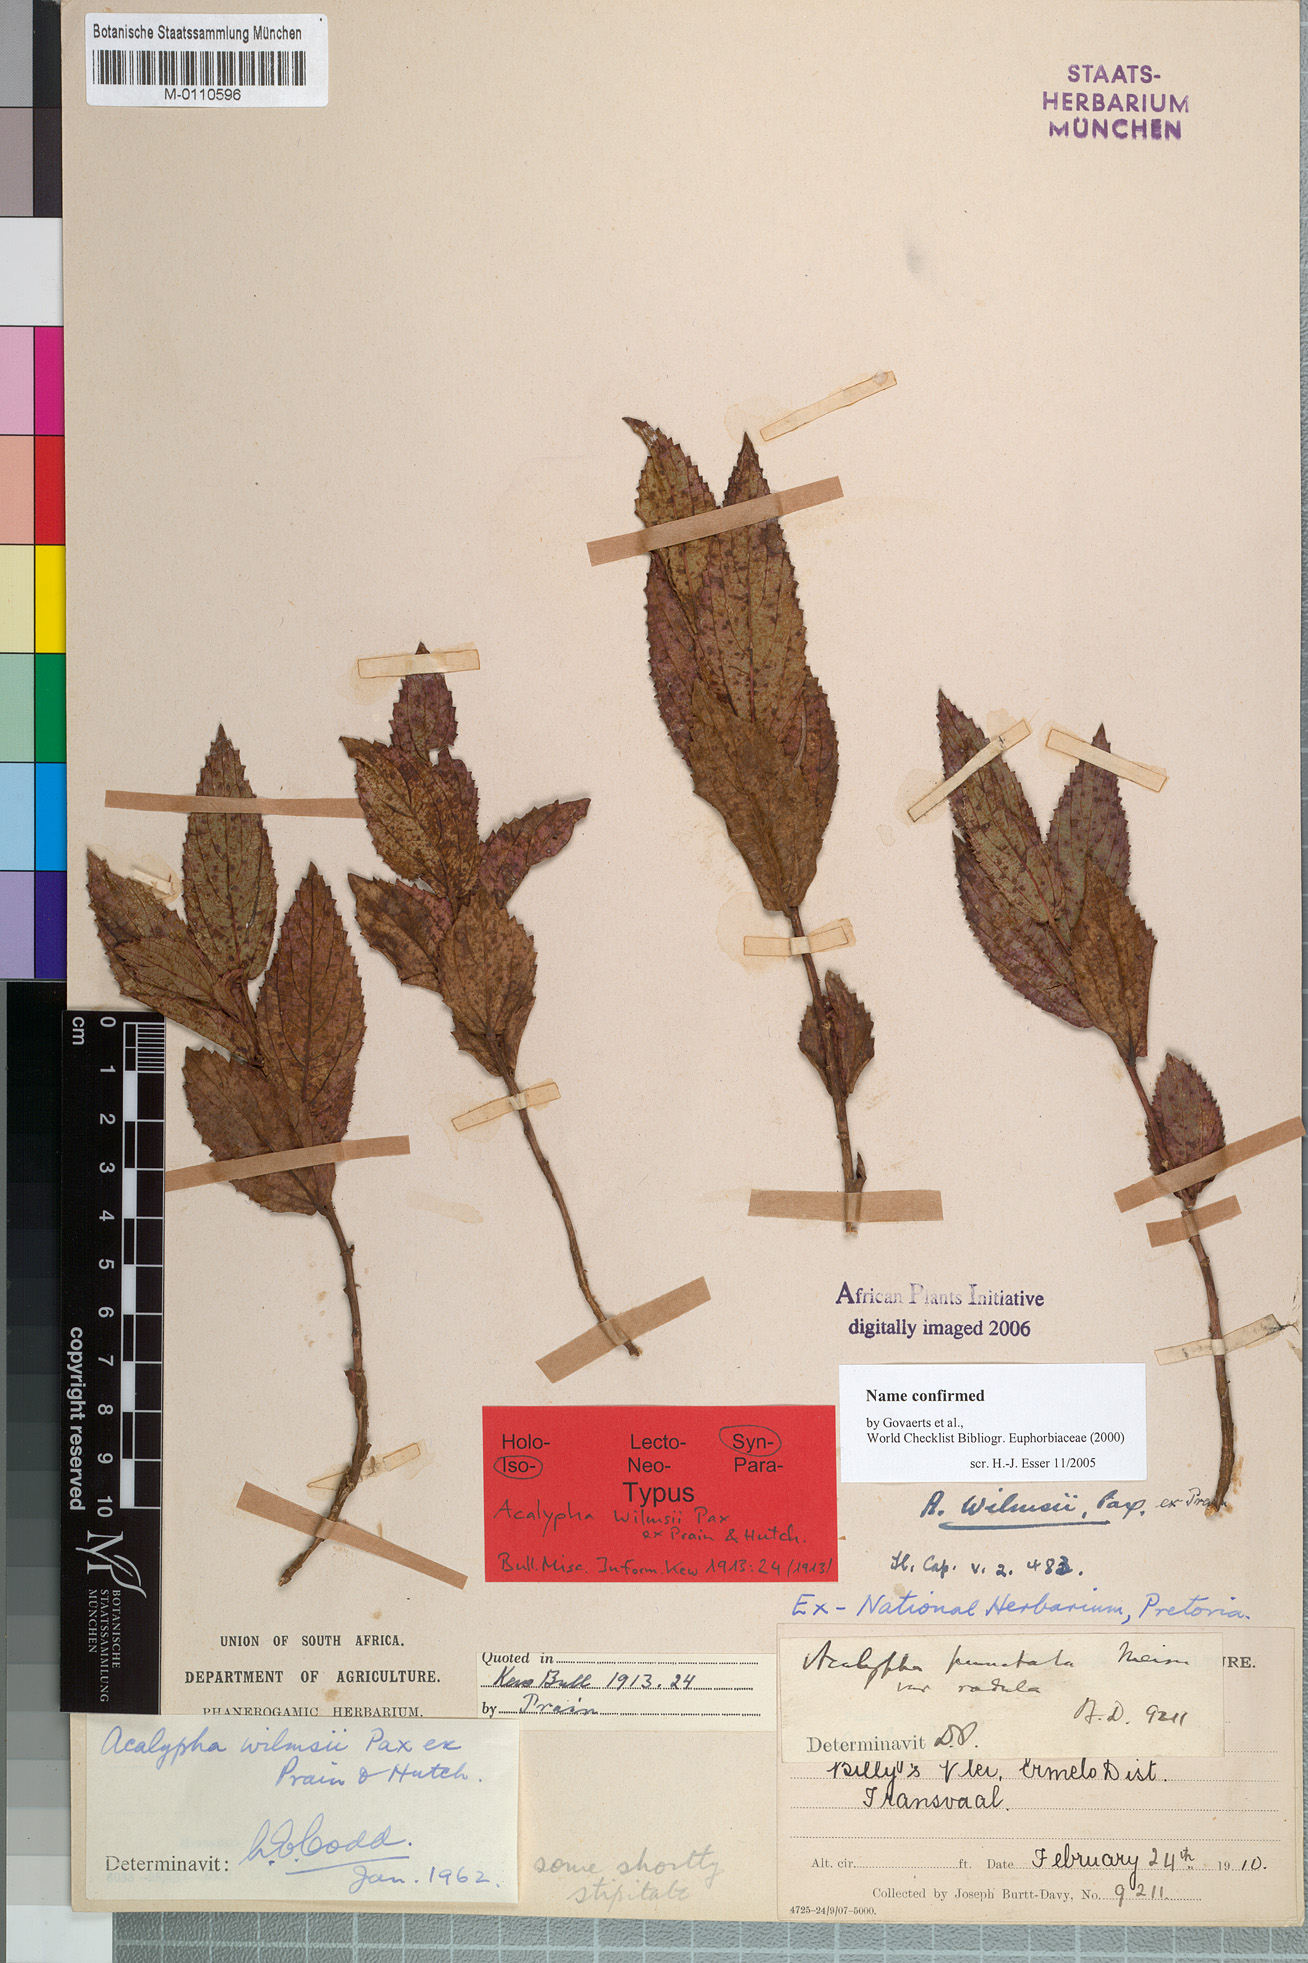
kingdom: Plantae
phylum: Tracheophyta
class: Magnoliopsida
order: Malpighiales
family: Euphorbiaceae
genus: Acalypha
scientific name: Acalypha wilmsii
